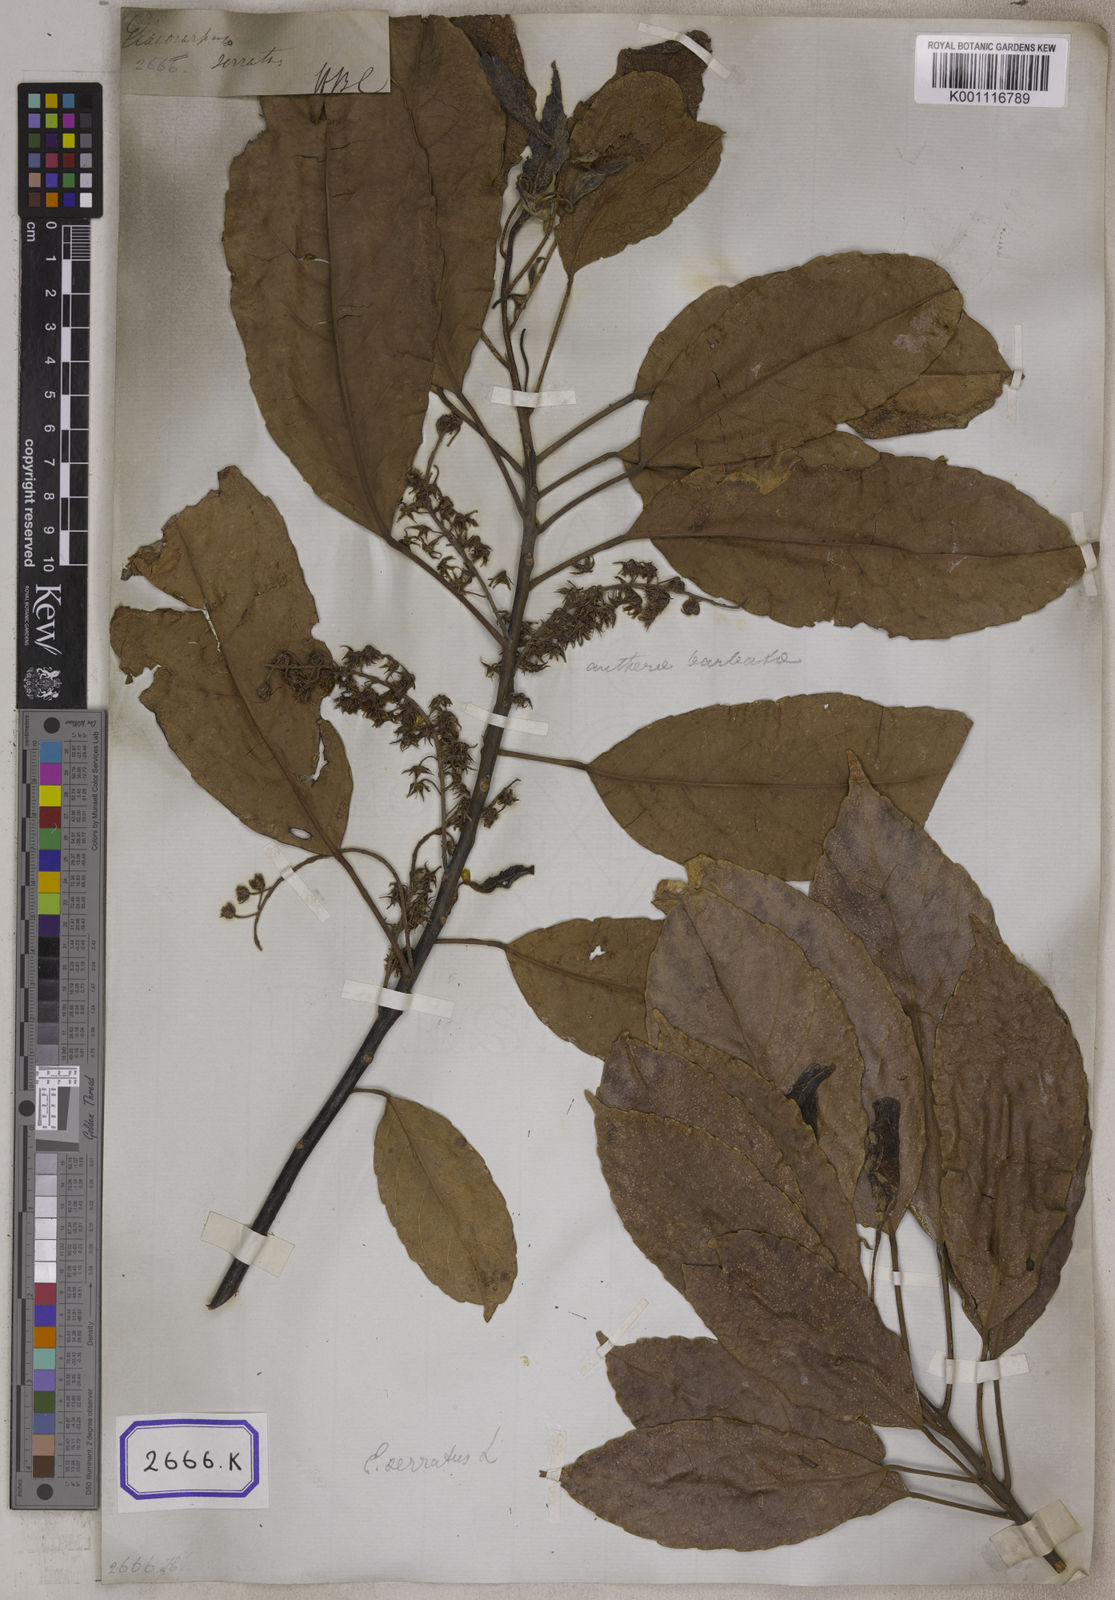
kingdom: Plantae
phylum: Tracheophyta
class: Magnoliopsida
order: Oxalidales
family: Elaeocarpaceae
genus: Elaeocarpus
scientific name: Elaeocarpus serratus
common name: Ceylon-olive
